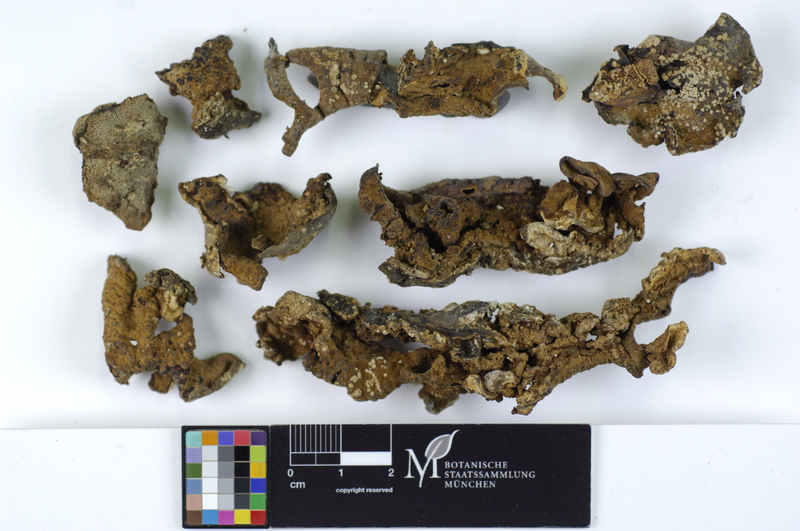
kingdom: Fungi
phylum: Basidiomycota
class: Agaricomycetes
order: Boletales
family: Coniophoraceae
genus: Coniophora
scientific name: Coniophora puteana
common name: Cellar fungus
